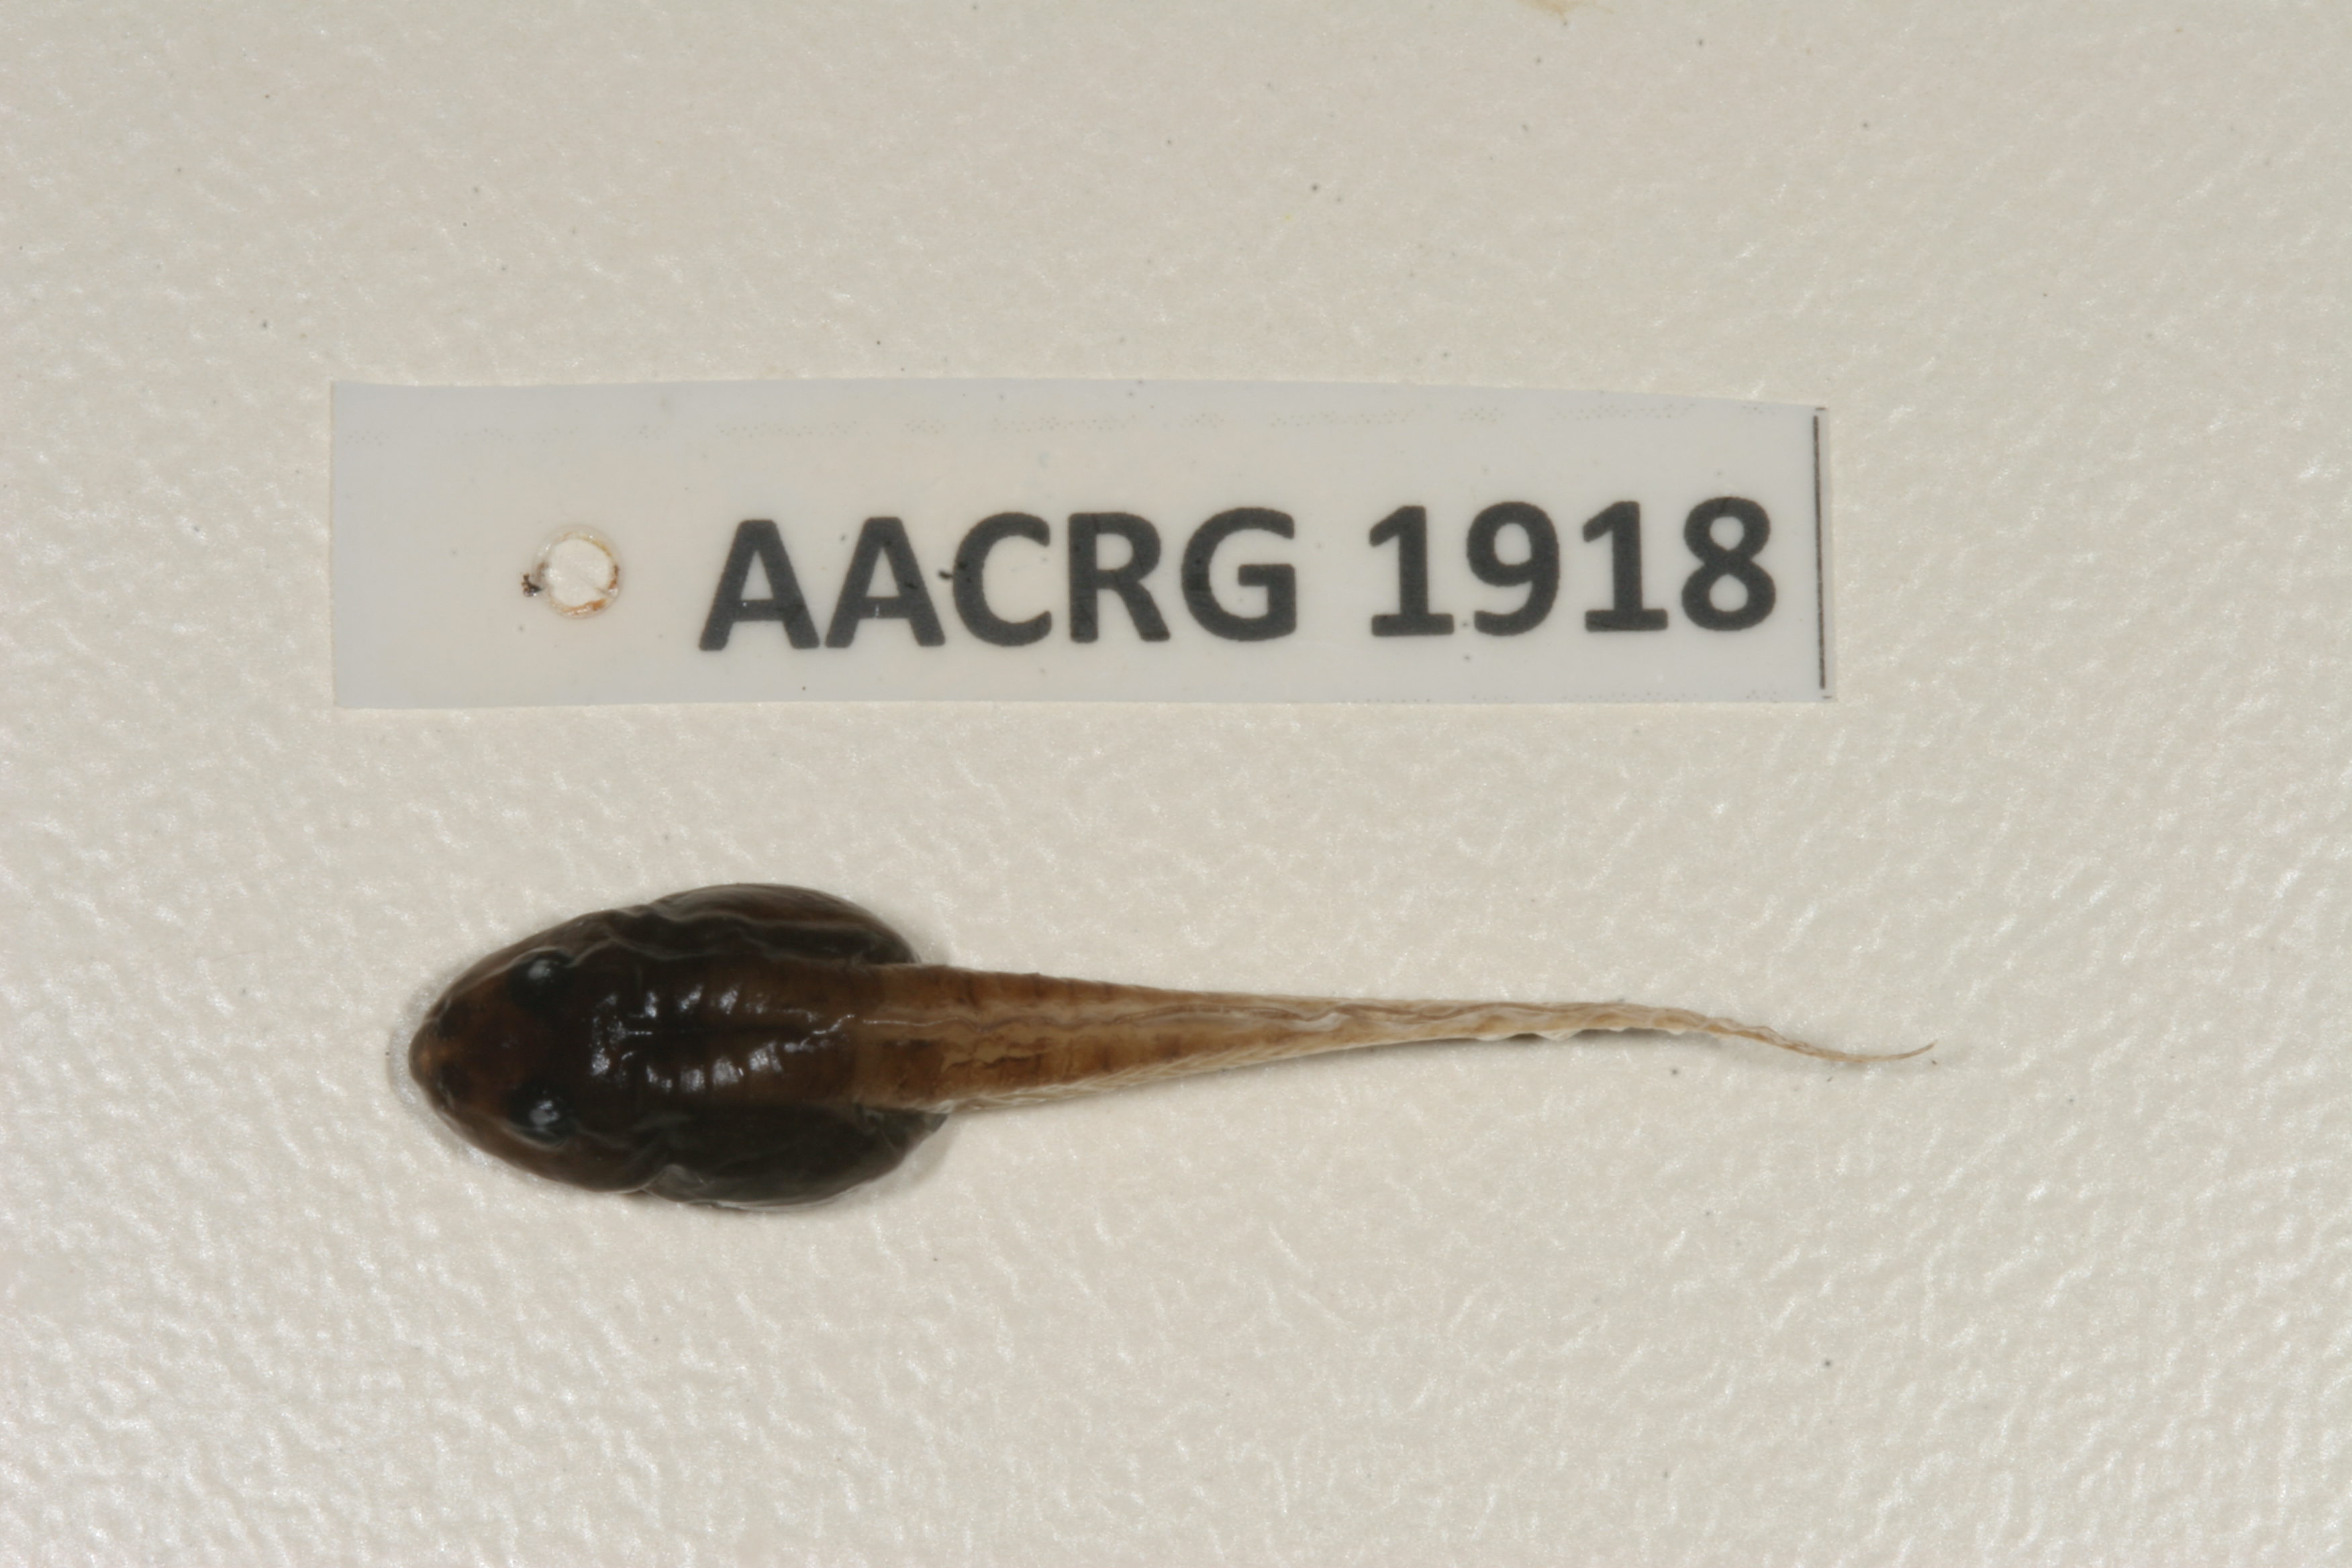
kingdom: Animalia
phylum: Chordata
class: Amphibia
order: Anura
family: Ptychadenidae
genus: Ptychadena
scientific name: Ptychadena mascareniensis
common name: Mascarene grass frog
